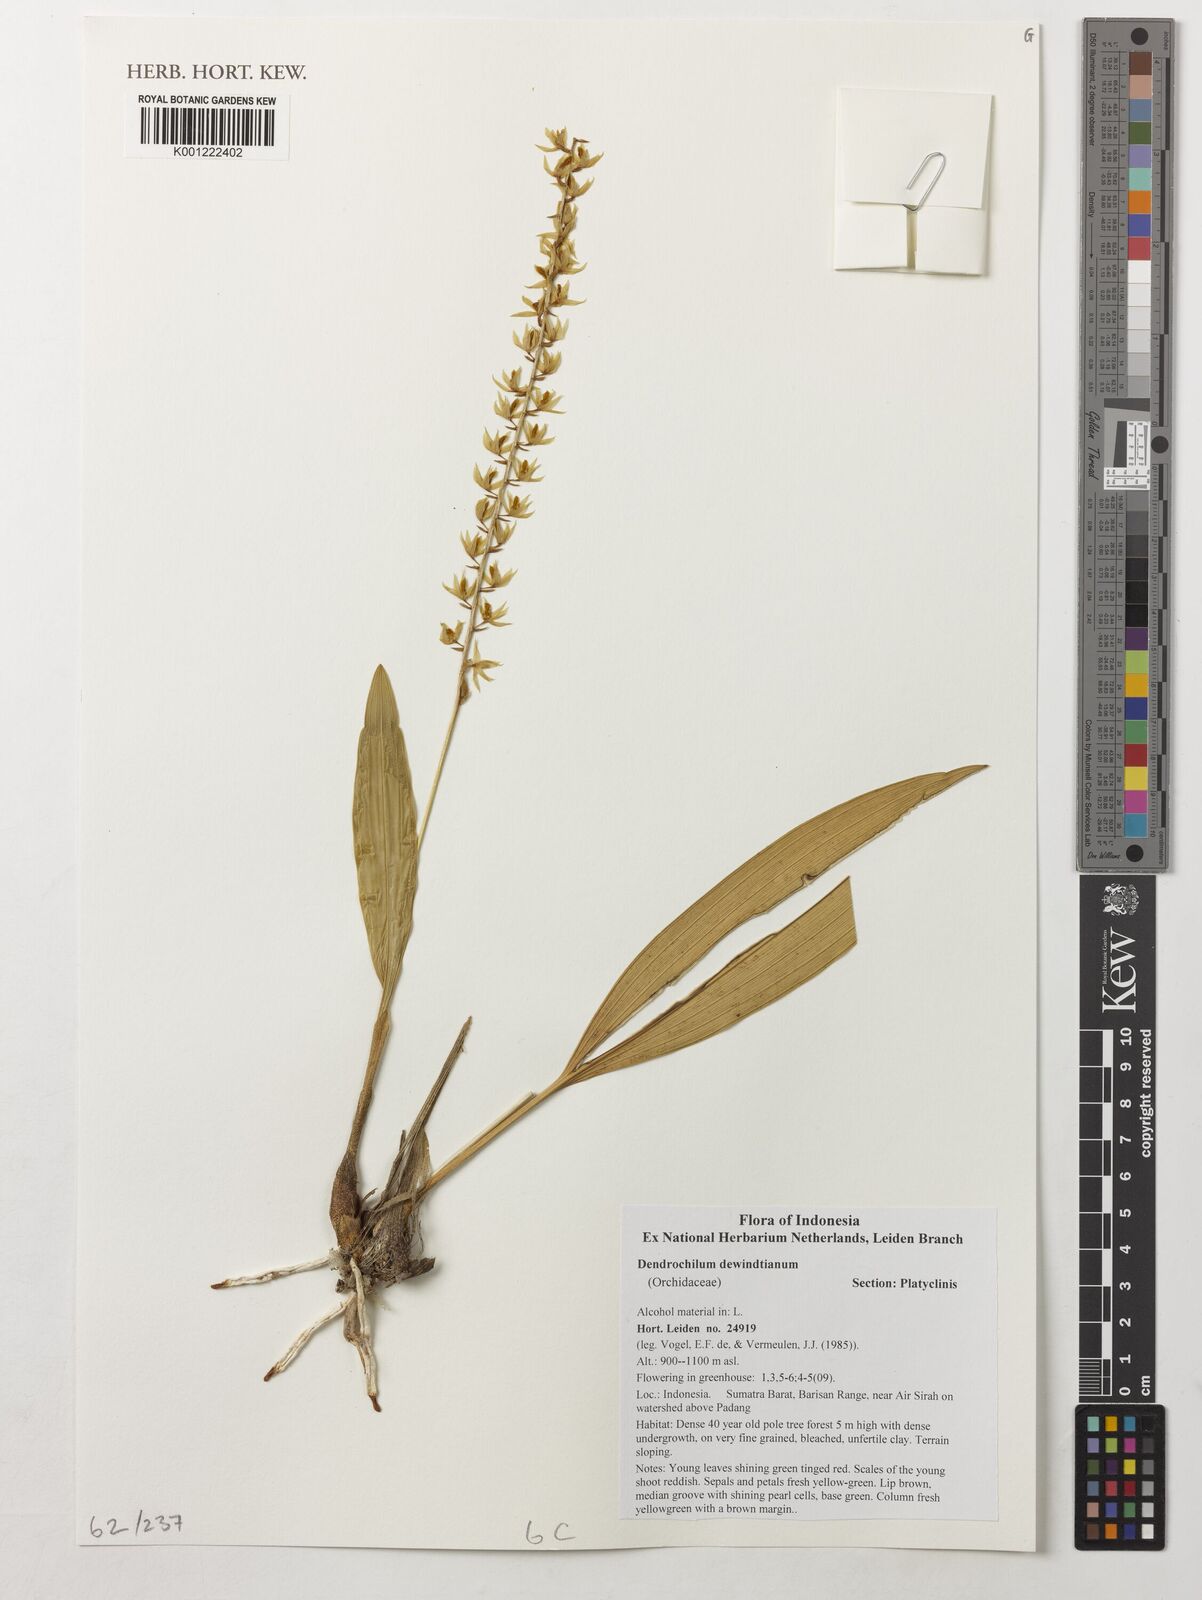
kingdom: Plantae
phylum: Tracheophyta
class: Liliopsida
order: Asparagales
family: Orchidaceae
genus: Coelogyne
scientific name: Coelogyne dewindtiana
